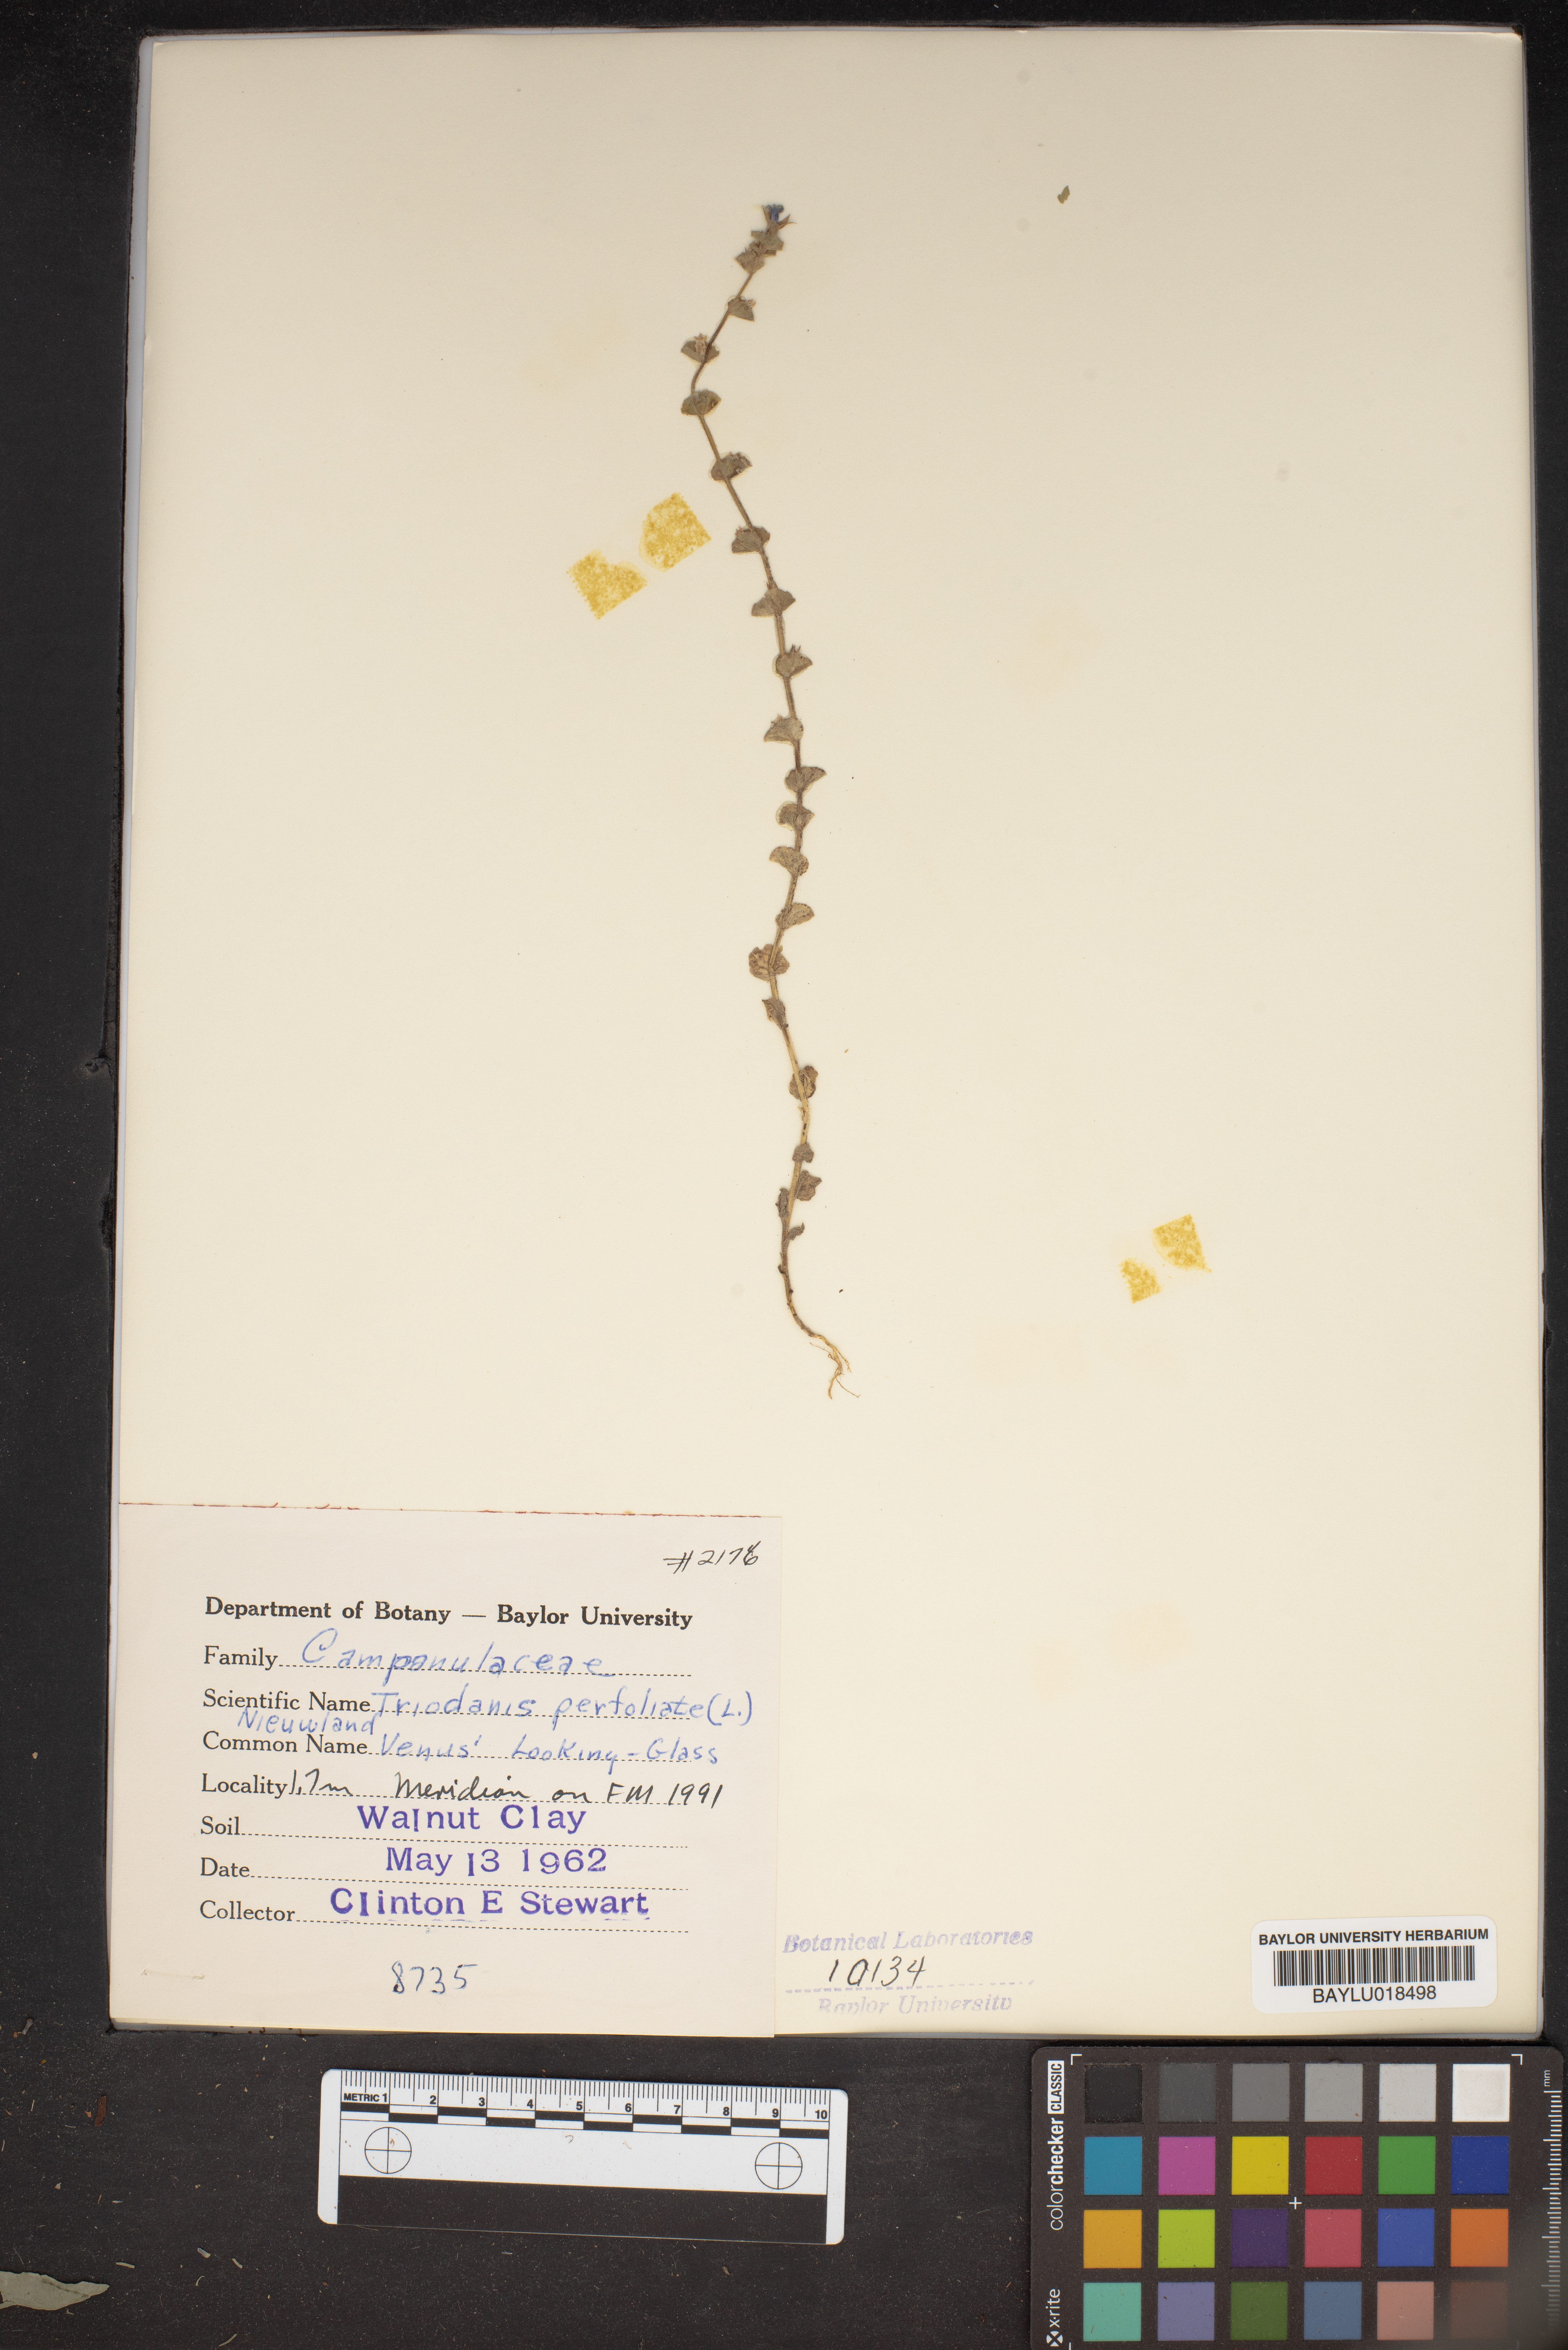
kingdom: Plantae
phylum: Tracheophyta
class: Magnoliopsida
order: Asterales
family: Campanulaceae
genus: Triodanis
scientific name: Triodanis perfoliata
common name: Clasping venus' looking-glass
